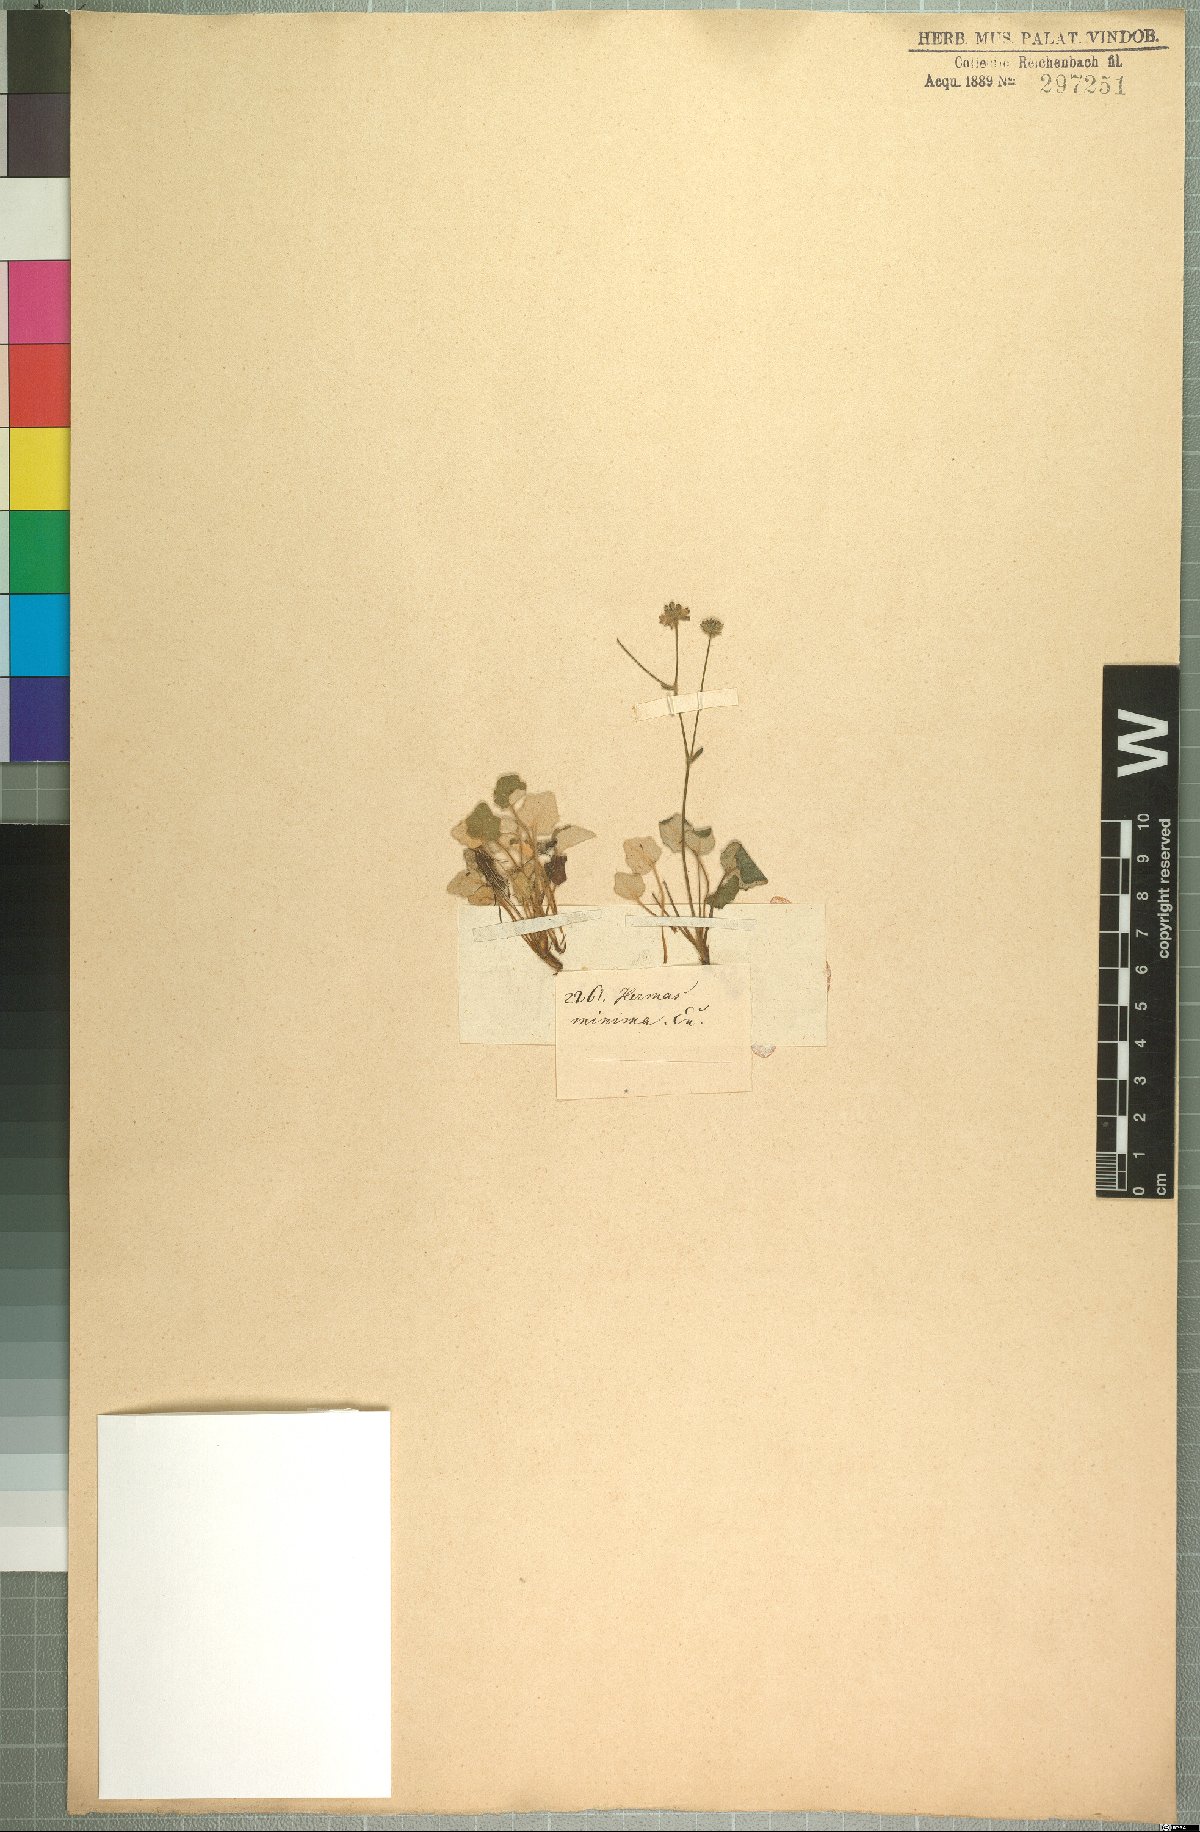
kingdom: Plantae
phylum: Tracheophyta
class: Magnoliopsida
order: Apiales
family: Apiaceae
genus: Hermas
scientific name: Hermas capitata
